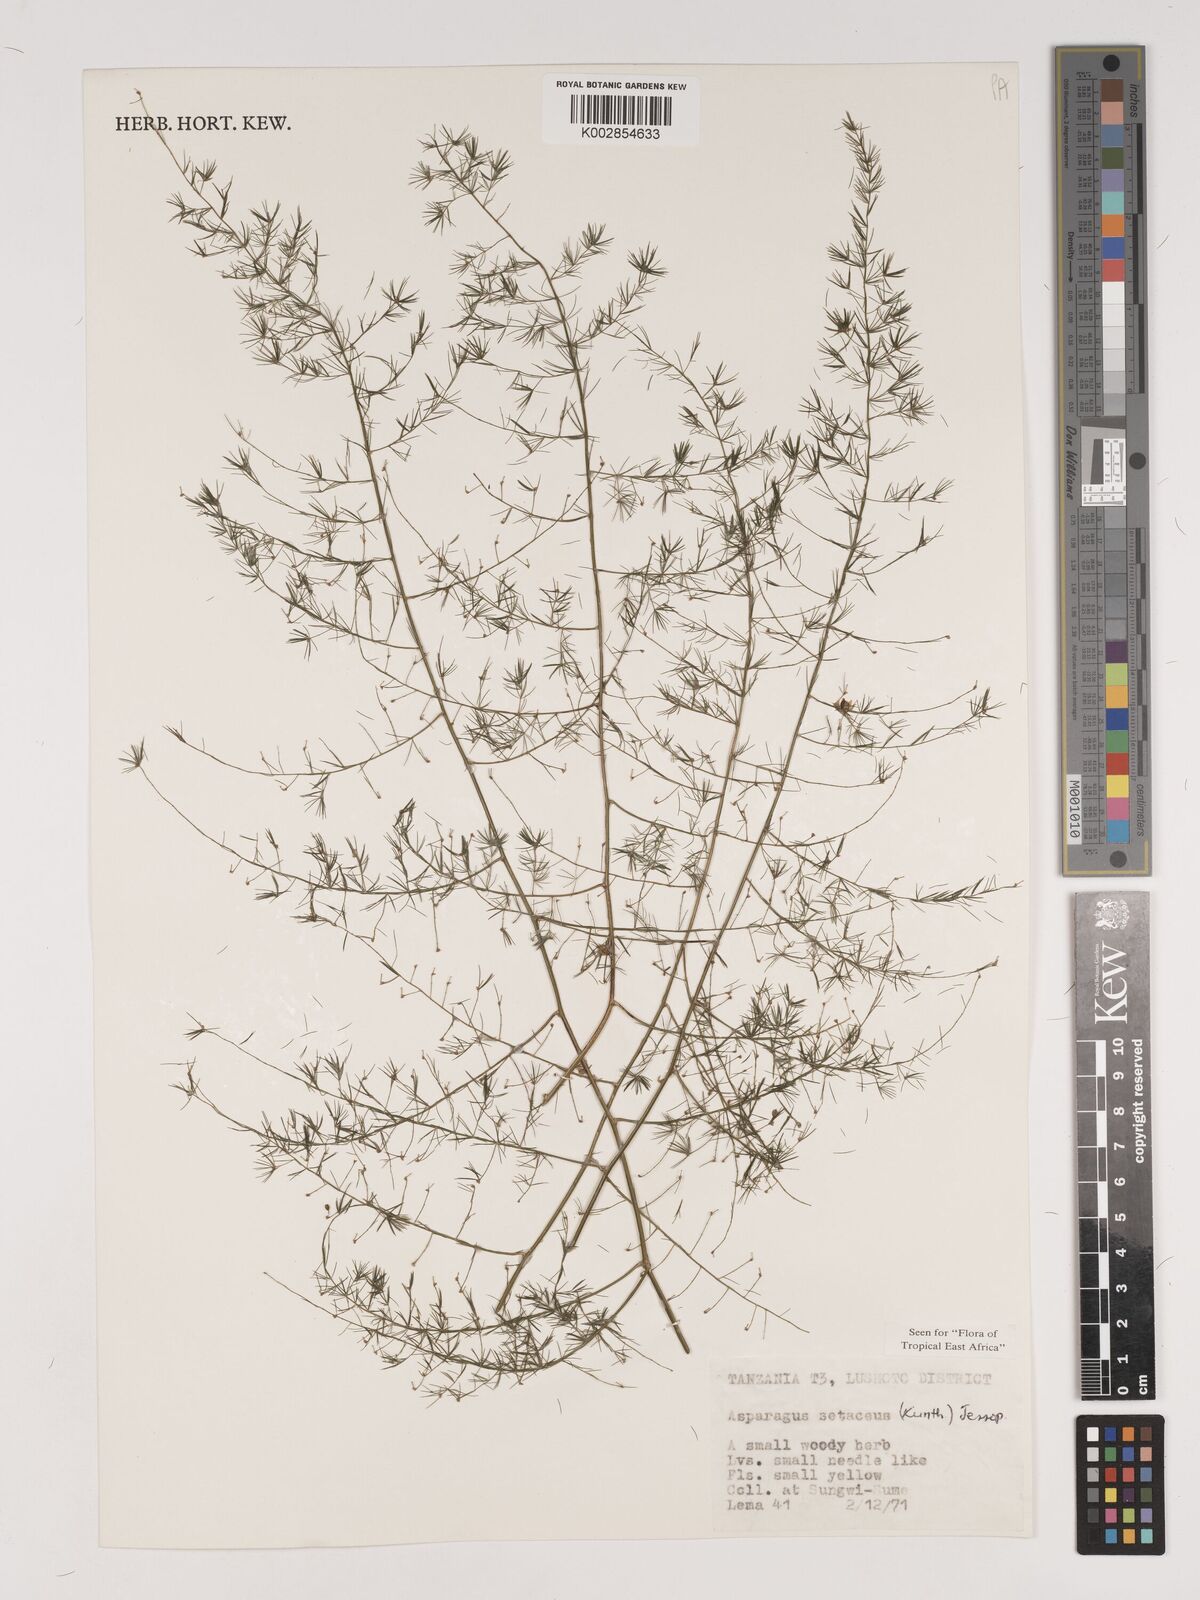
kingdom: Plantae
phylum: Tracheophyta
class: Liliopsida
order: Asparagales
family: Asparagaceae
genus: Asparagus
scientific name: Asparagus setaceus
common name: Common asparagus fern
